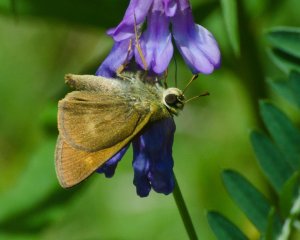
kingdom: Animalia
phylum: Arthropoda
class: Insecta
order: Lepidoptera
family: Hesperiidae
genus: Polites
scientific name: Polites egeremet
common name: Northern Broken-Dash
